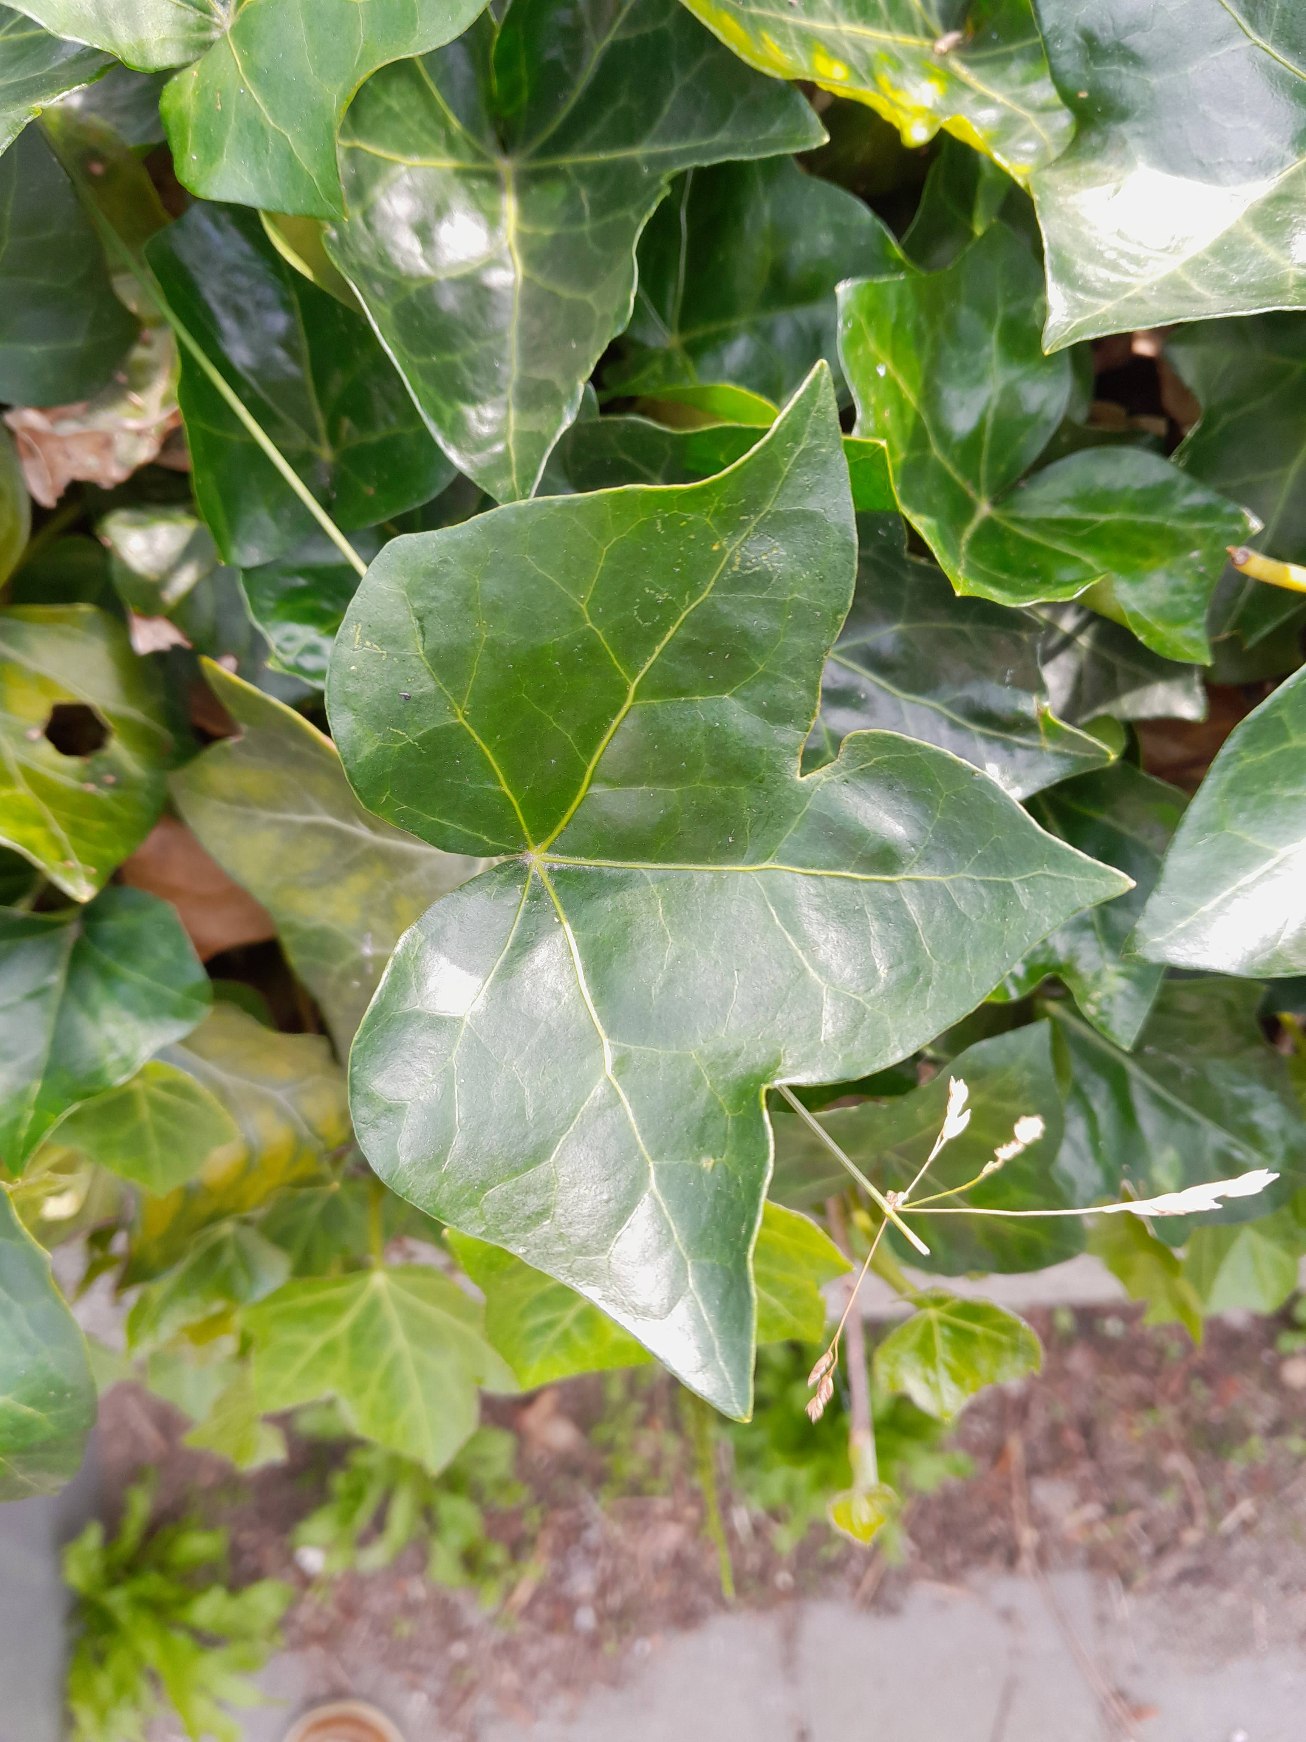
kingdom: Plantae
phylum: Tracheophyta
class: Magnoliopsida
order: Apiales
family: Araliaceae
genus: Hedera
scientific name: Hedera hibernica
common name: Irsk vedbend
